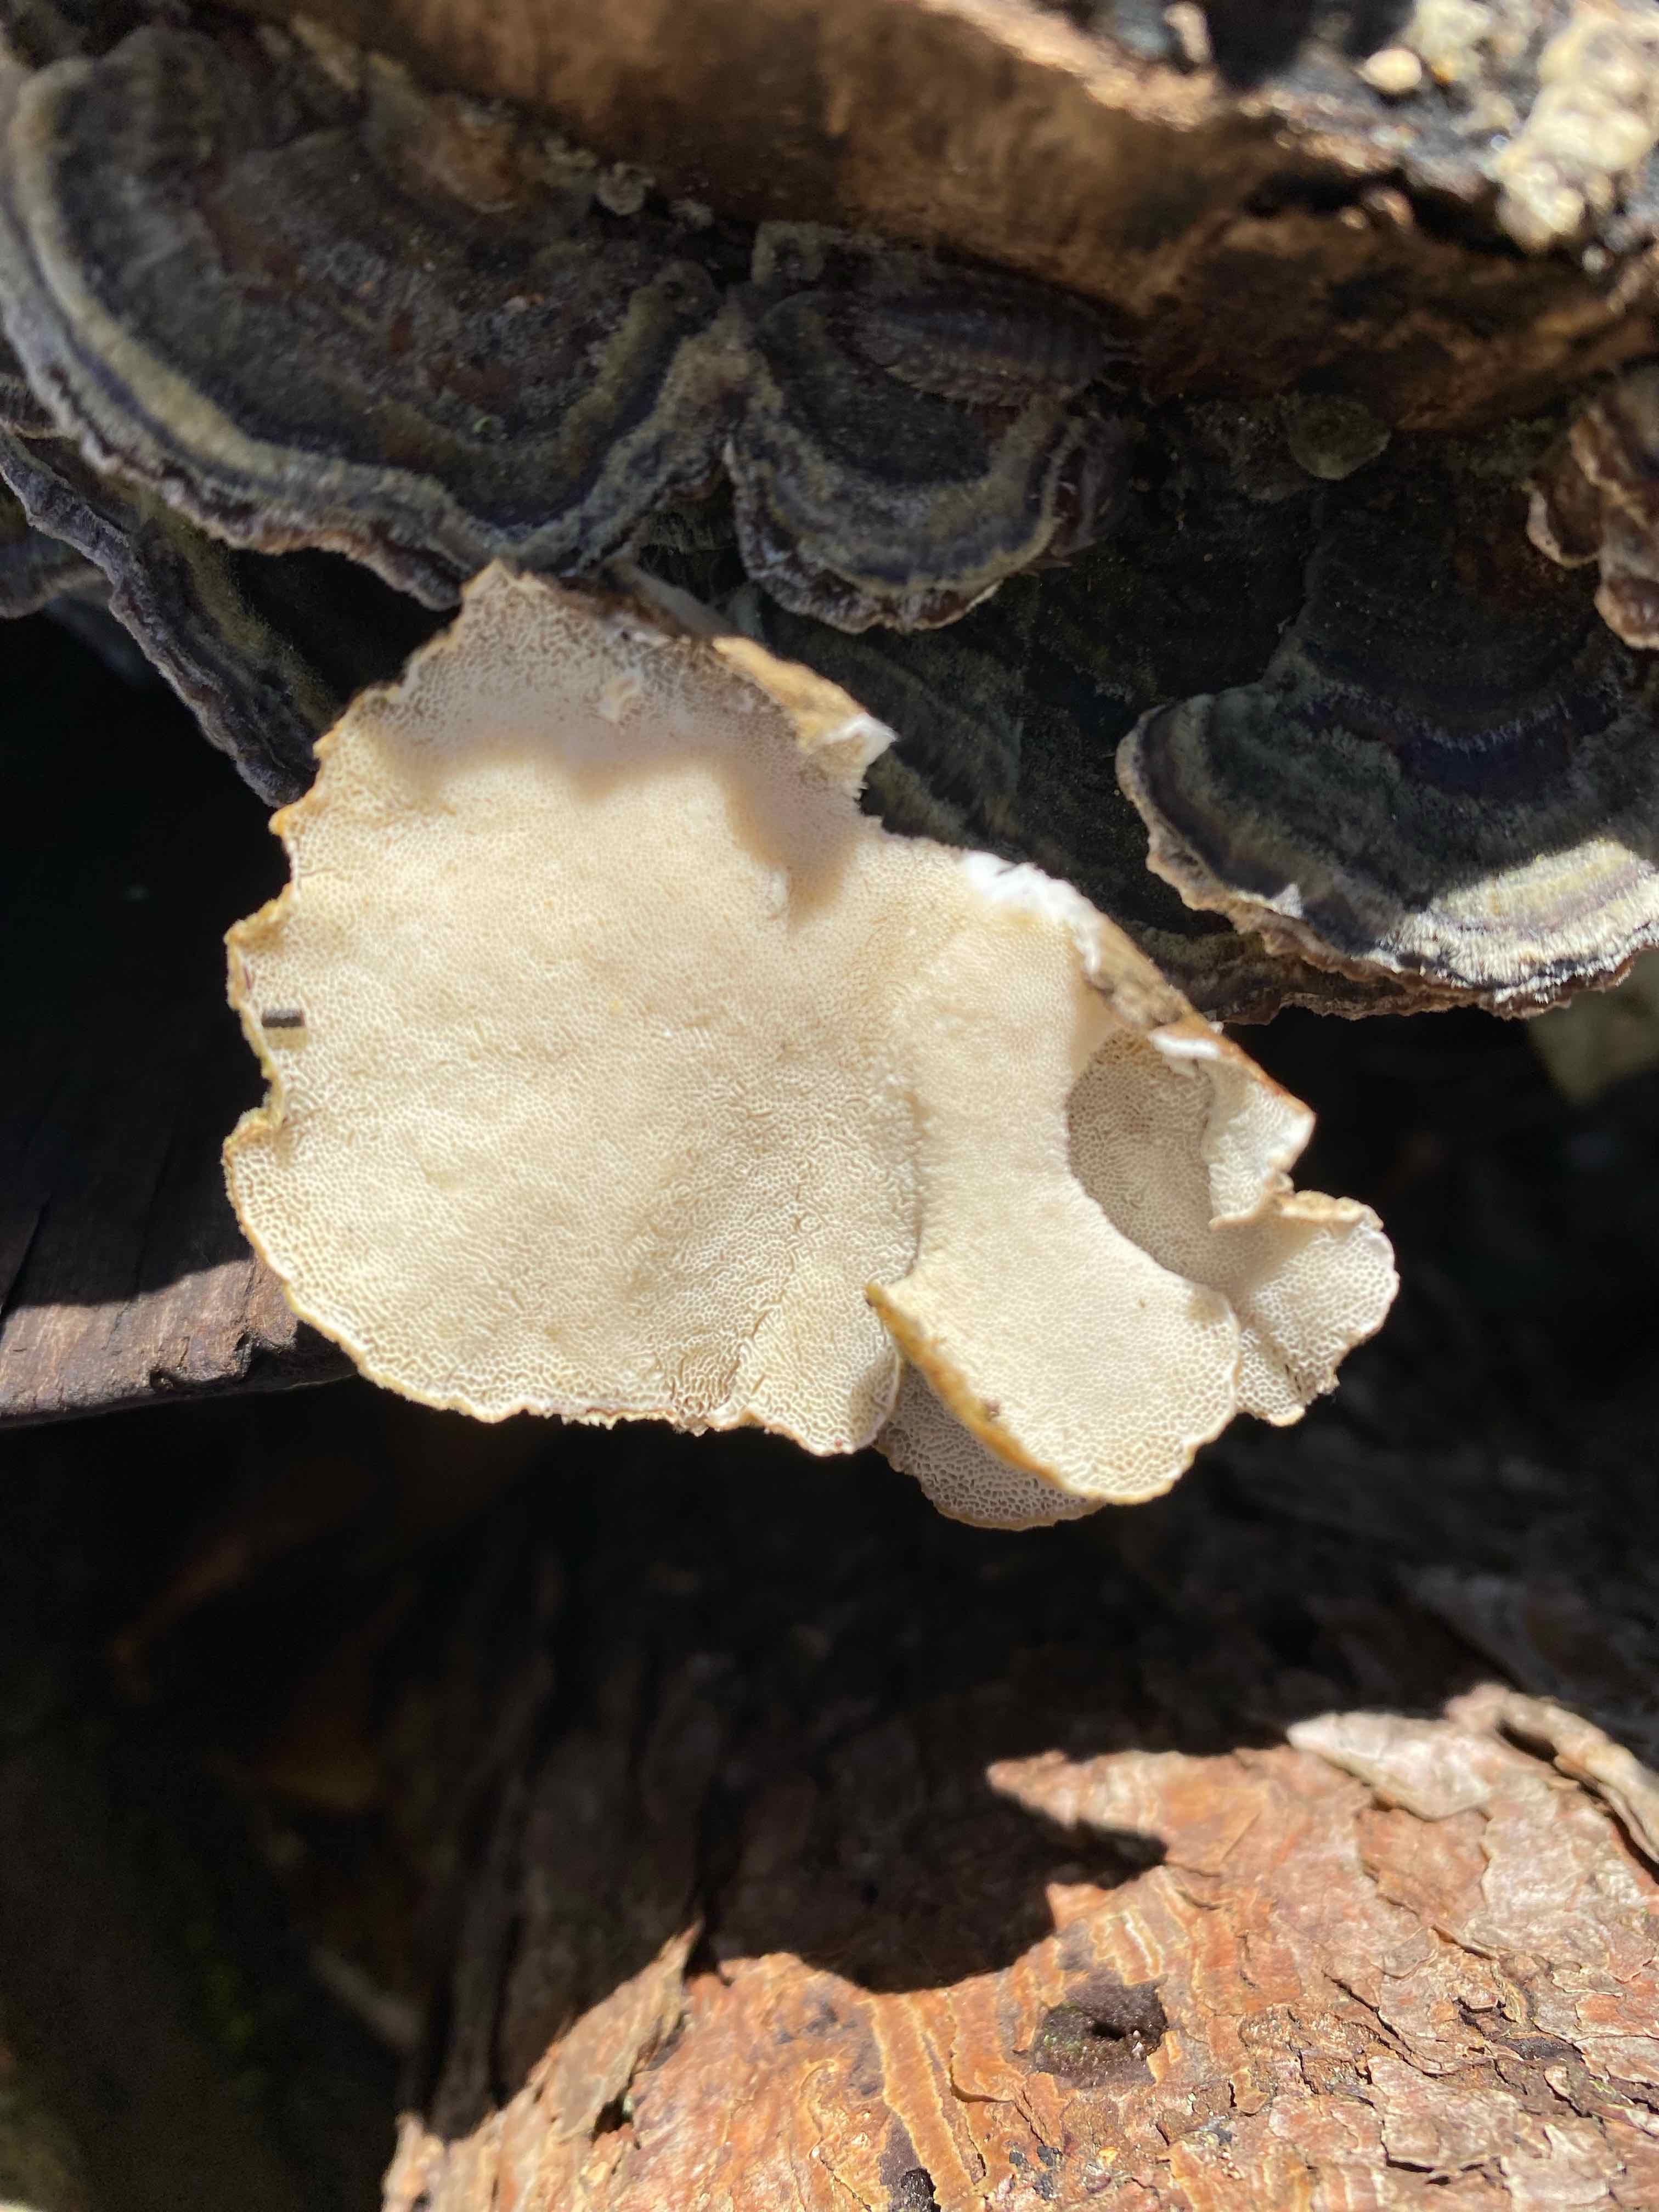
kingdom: Fungi
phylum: Basidiomycota
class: Agaricomycetes
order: Polyporales
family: Polyporaceae
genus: Trametes
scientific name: Trametes versicolor
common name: broget læderporesvamp
